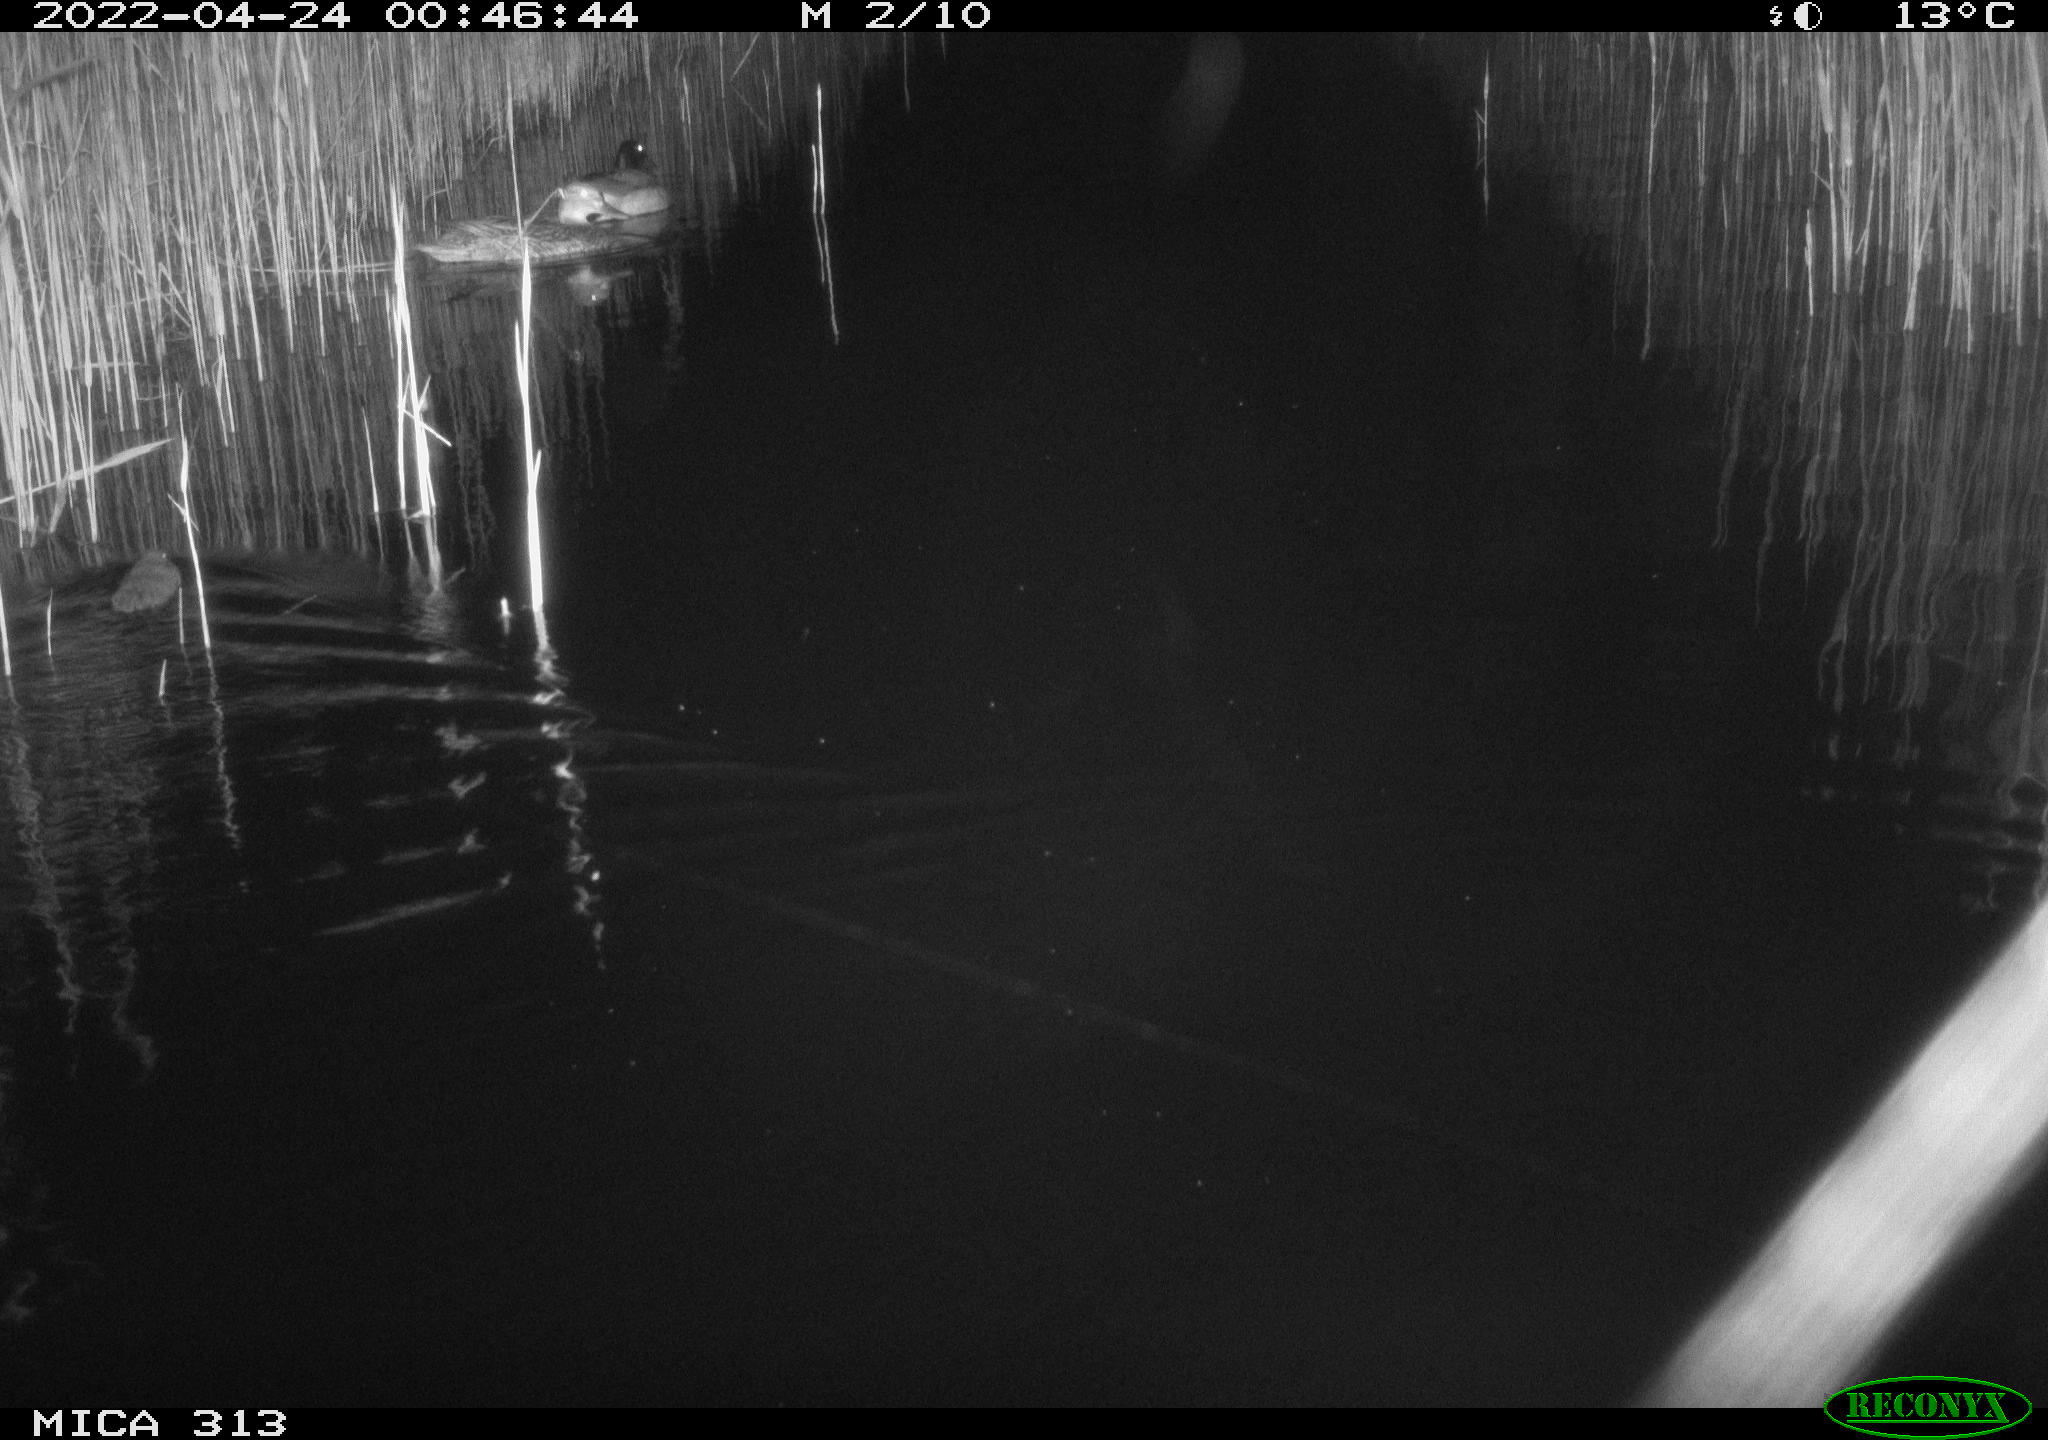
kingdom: Animalia
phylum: Chordata
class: Mammalia
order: Rodentia
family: Cricetidae
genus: Ondatra
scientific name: Ondatra zibethicus
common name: Muskrat
